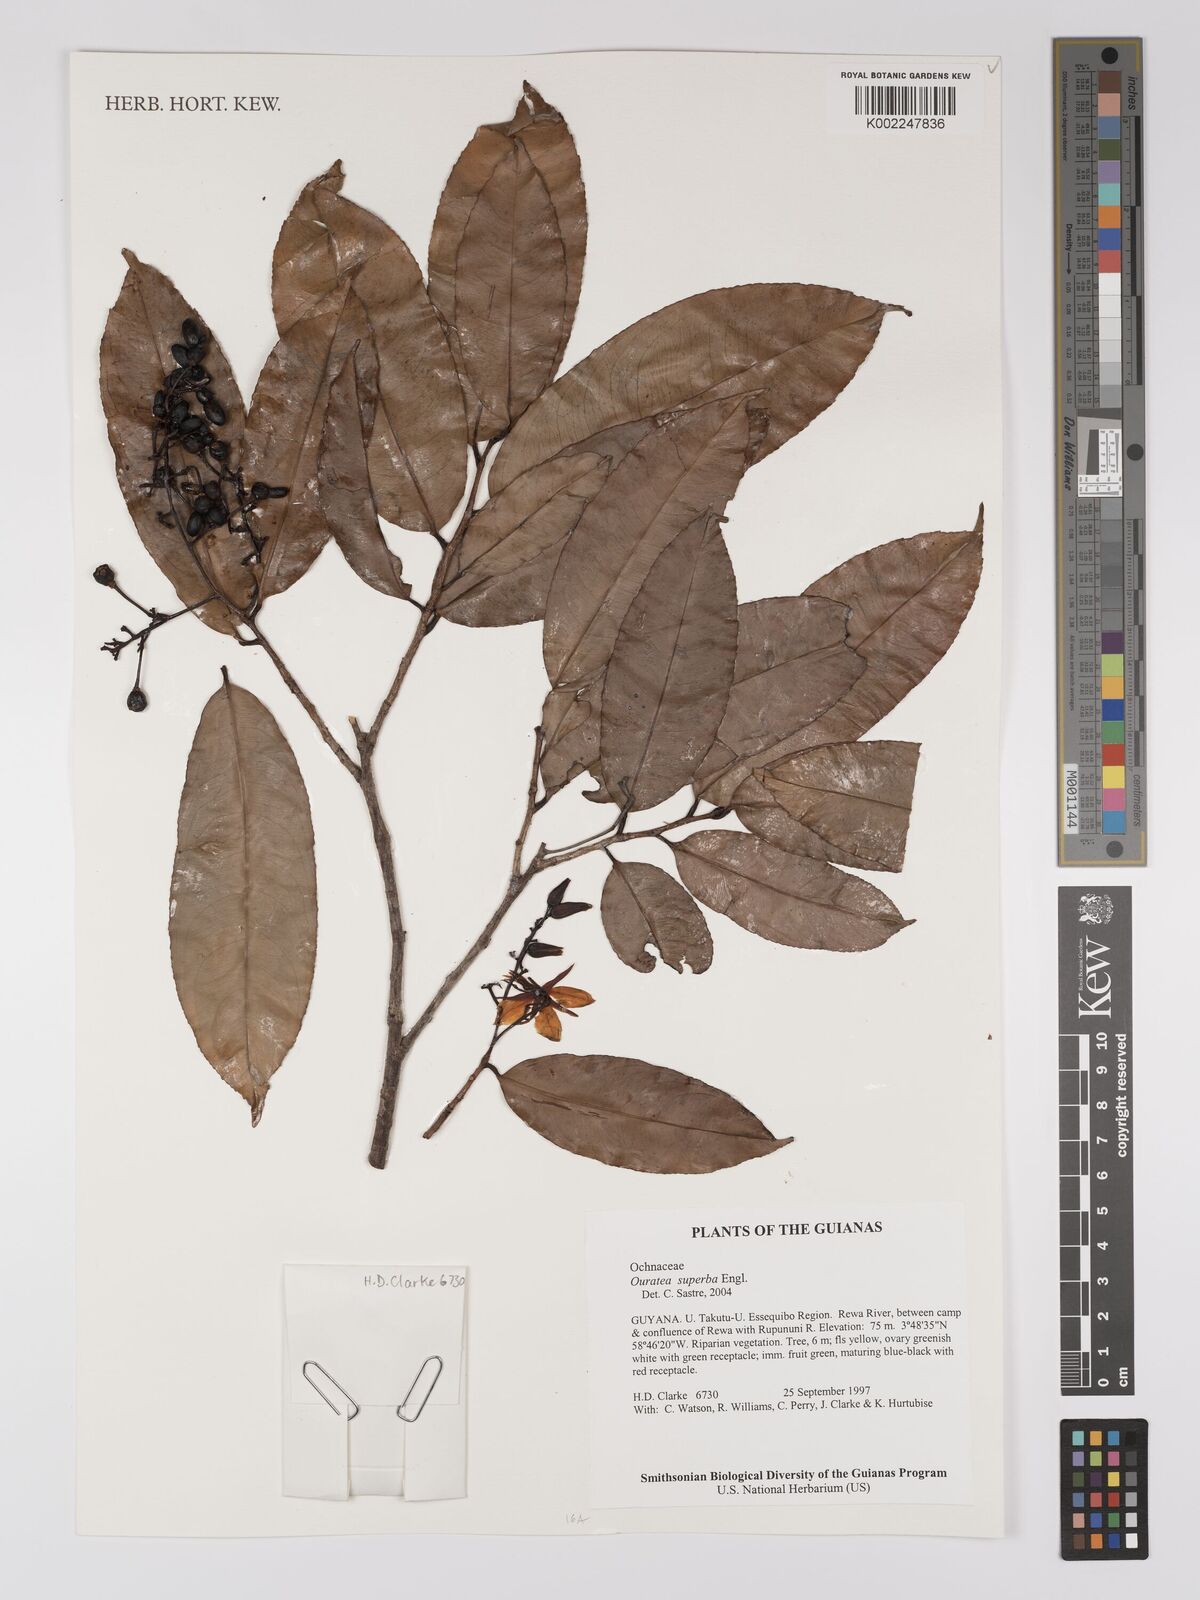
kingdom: Plantae
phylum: Tracheophyta
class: Magnoliopsida
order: Malpighiales
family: Ochnaceae
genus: Ouratea
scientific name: Ouratea superba
